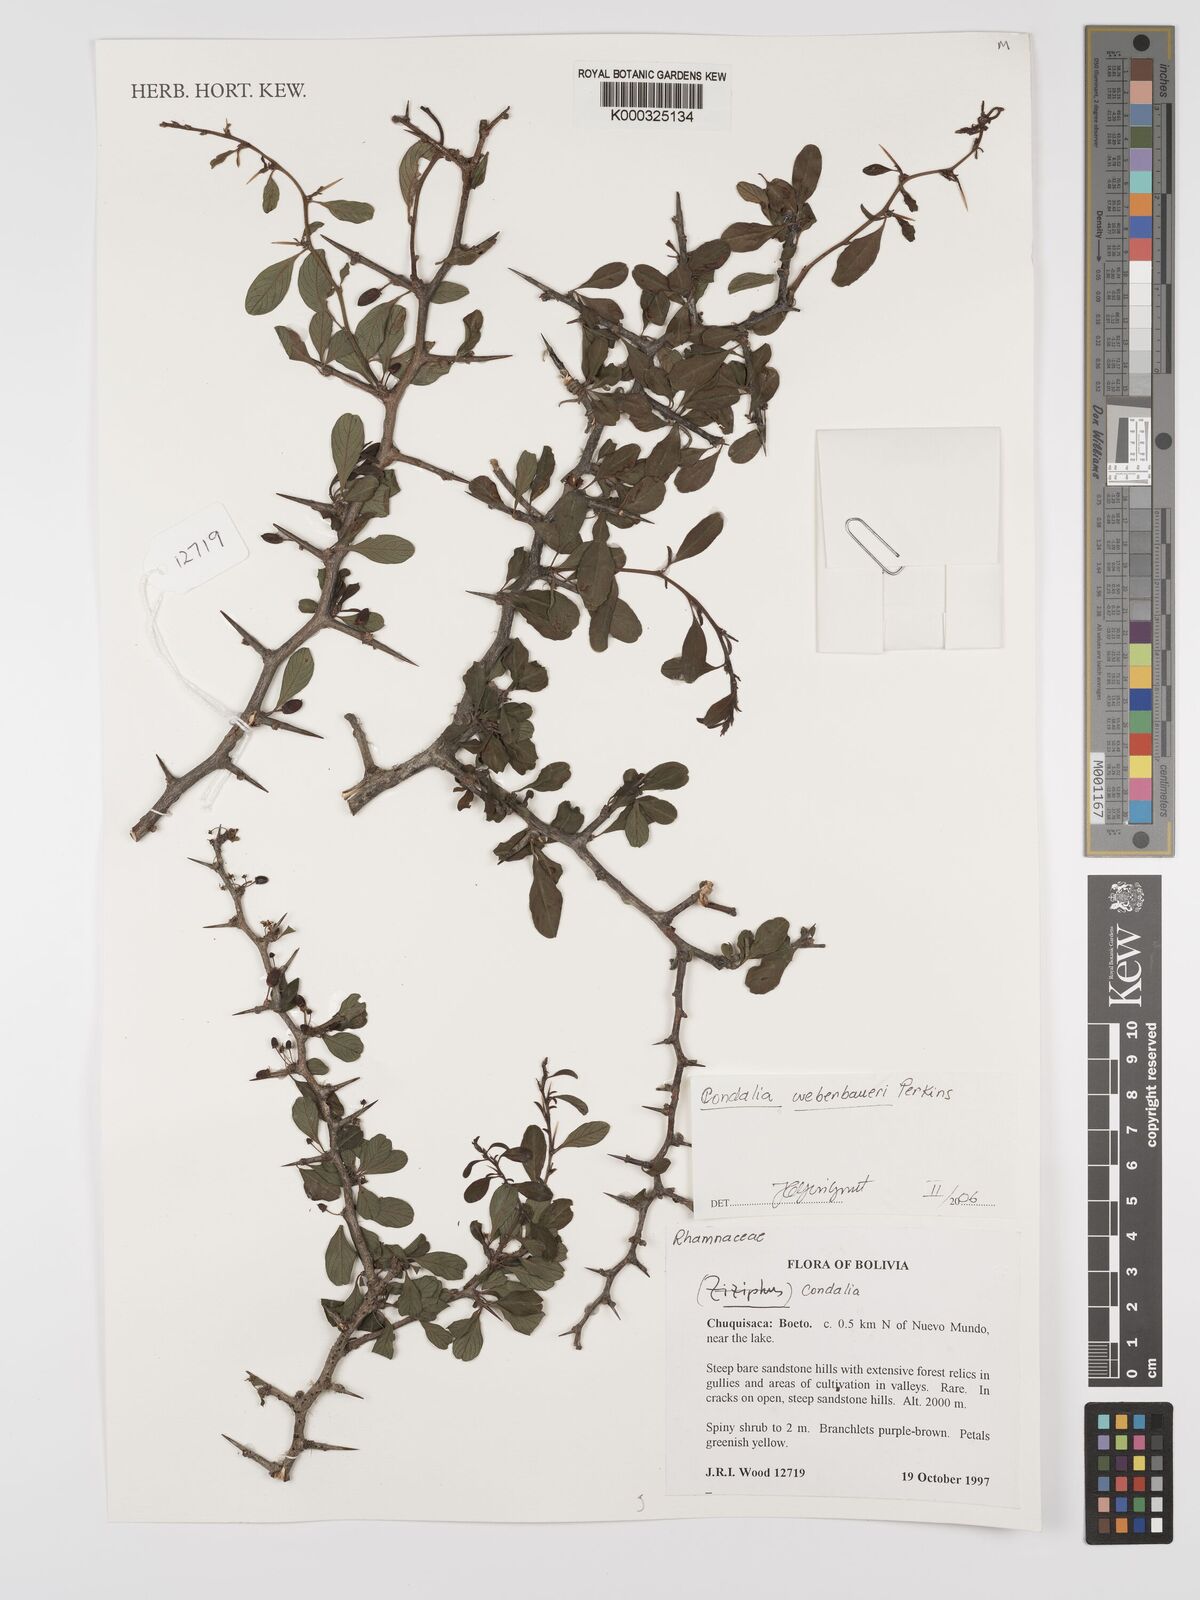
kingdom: Plantae
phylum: Tracheophyta
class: Magnoliopsida
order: Rosales
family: Rhamnaceae
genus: Condalia
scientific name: Condalia
